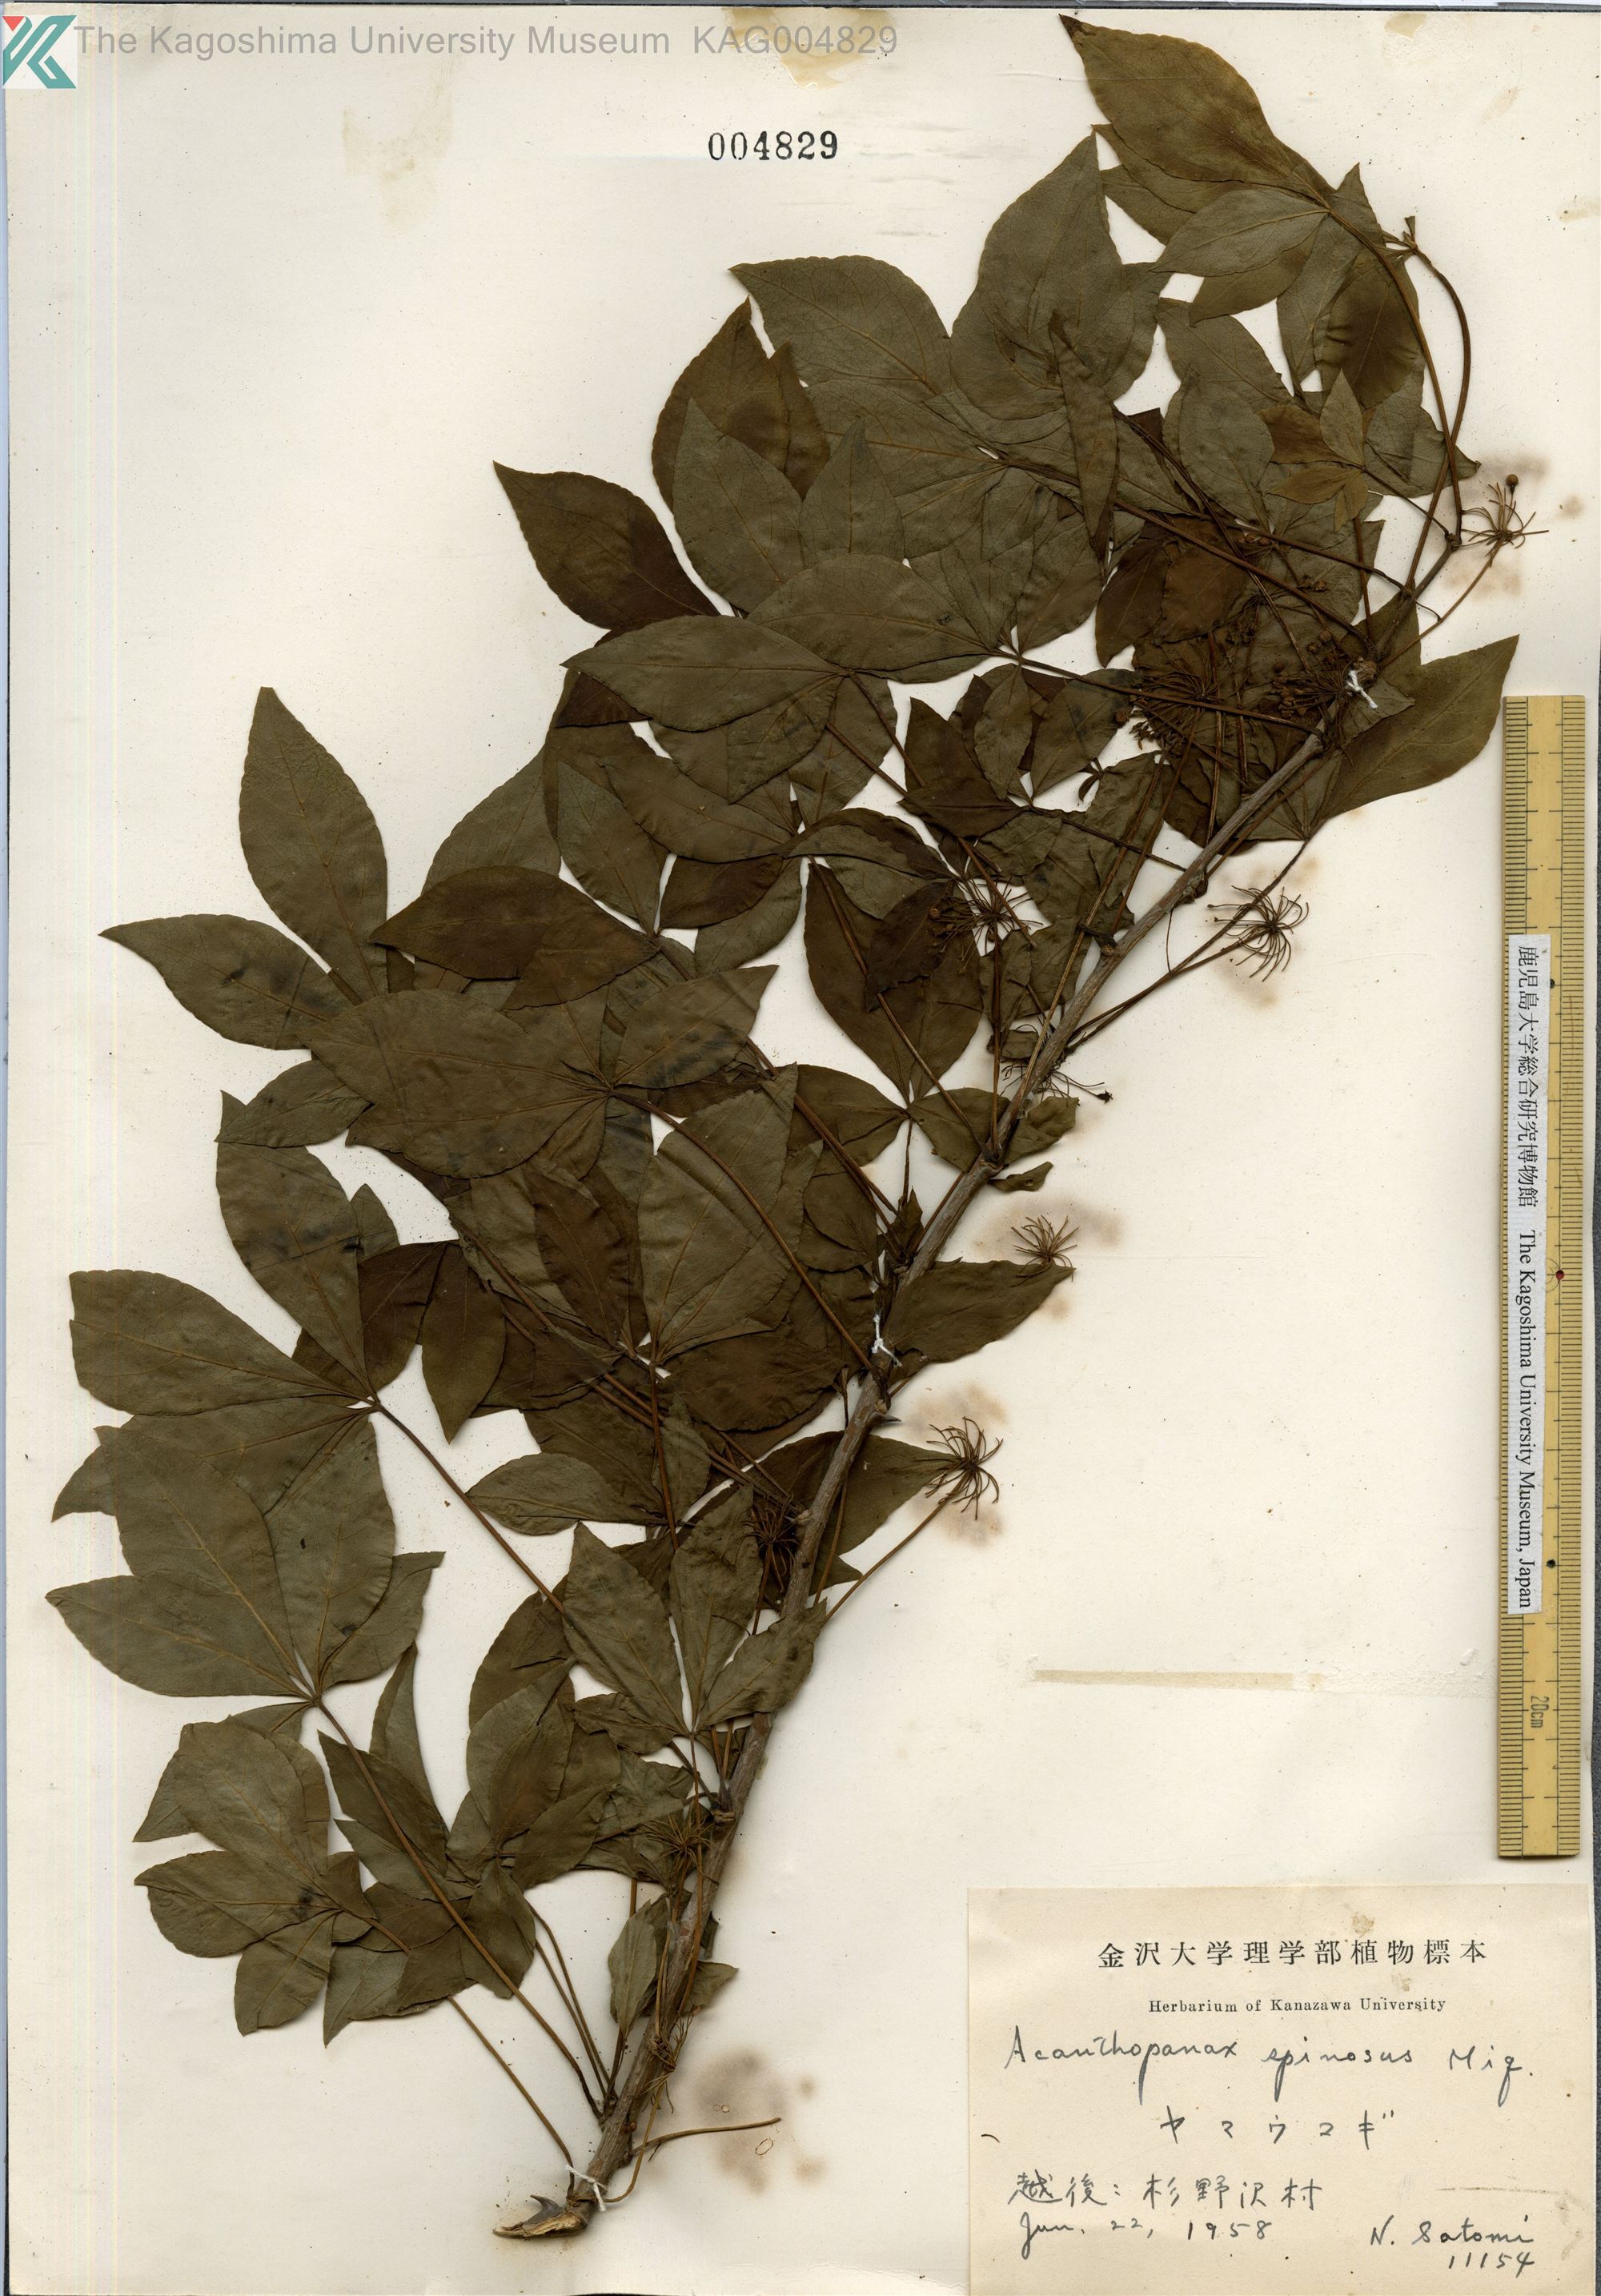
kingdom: Plantae
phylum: Tracheophyta
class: Magnoliopsida
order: Apiales
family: Araliaceae
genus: Eleutherococcus
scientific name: Eleutherococcus nodiflorus
